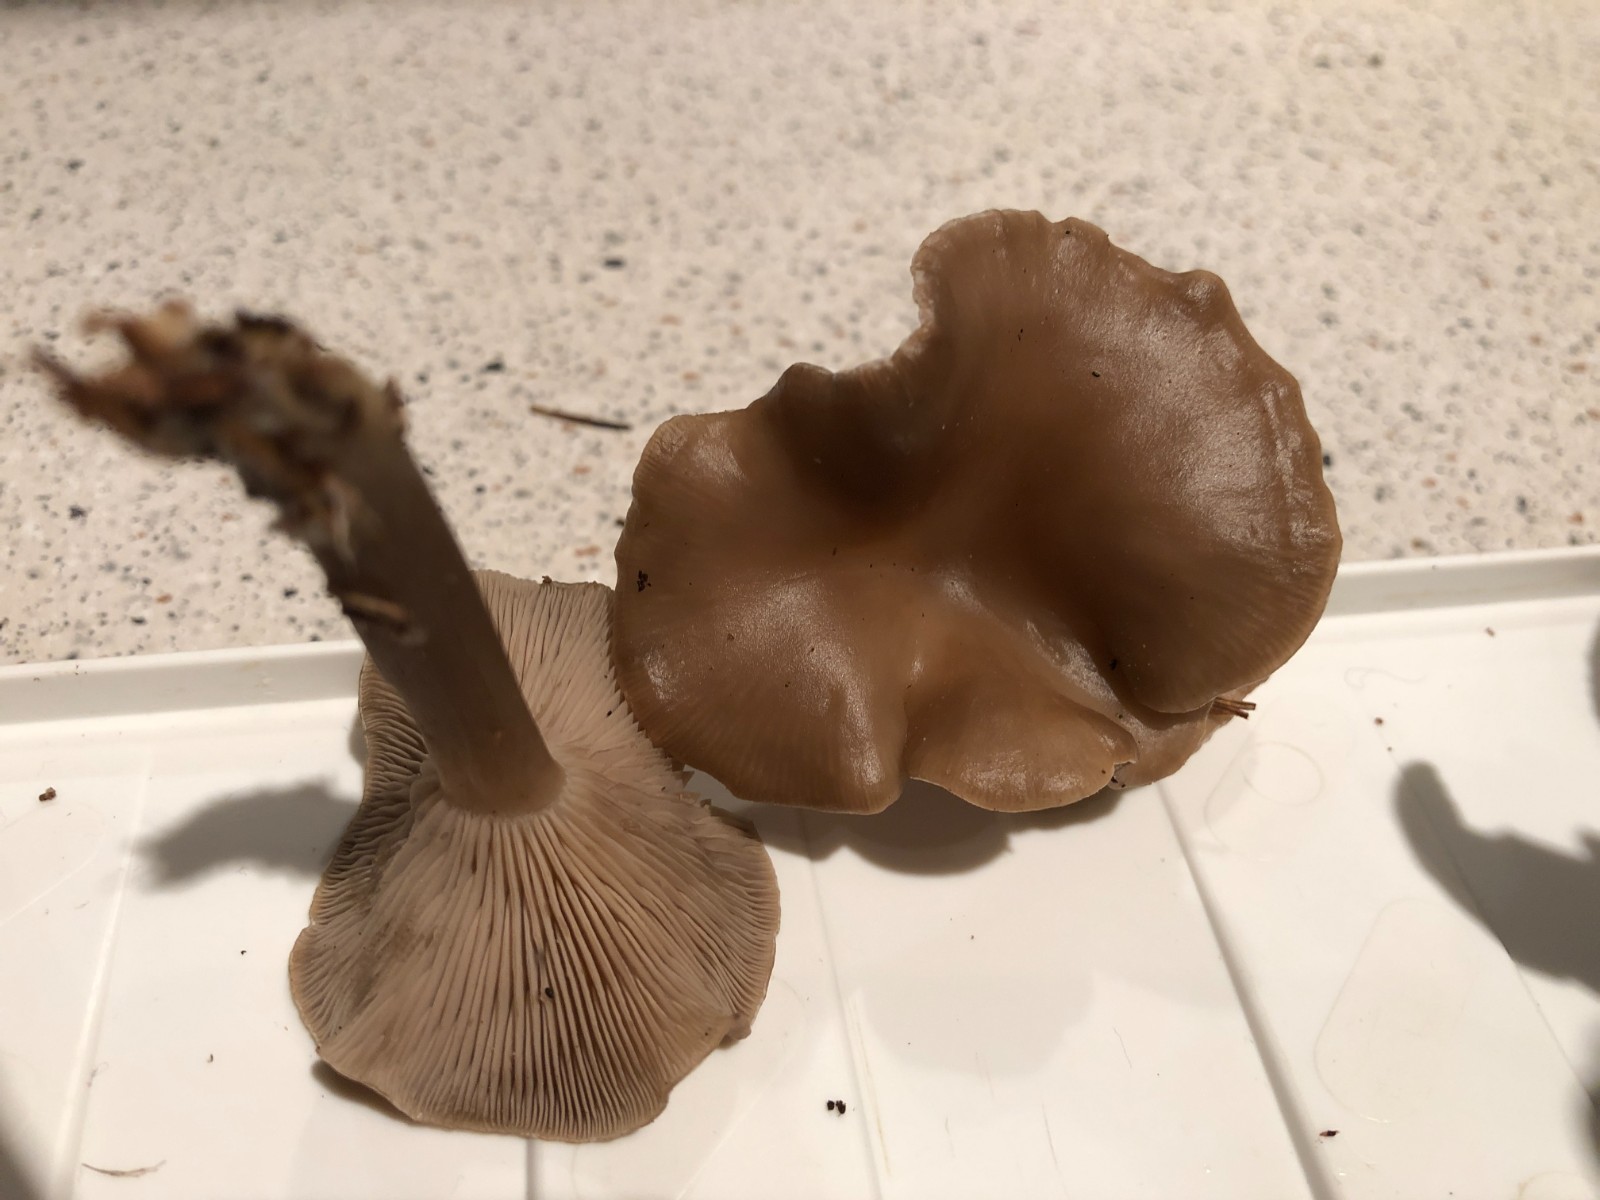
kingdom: Fungi
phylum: Basidiomycota
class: Agaricomycetes
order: Agaricales
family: Tricholomataceae
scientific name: Tricholomataceae
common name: ridderhatfamilien
